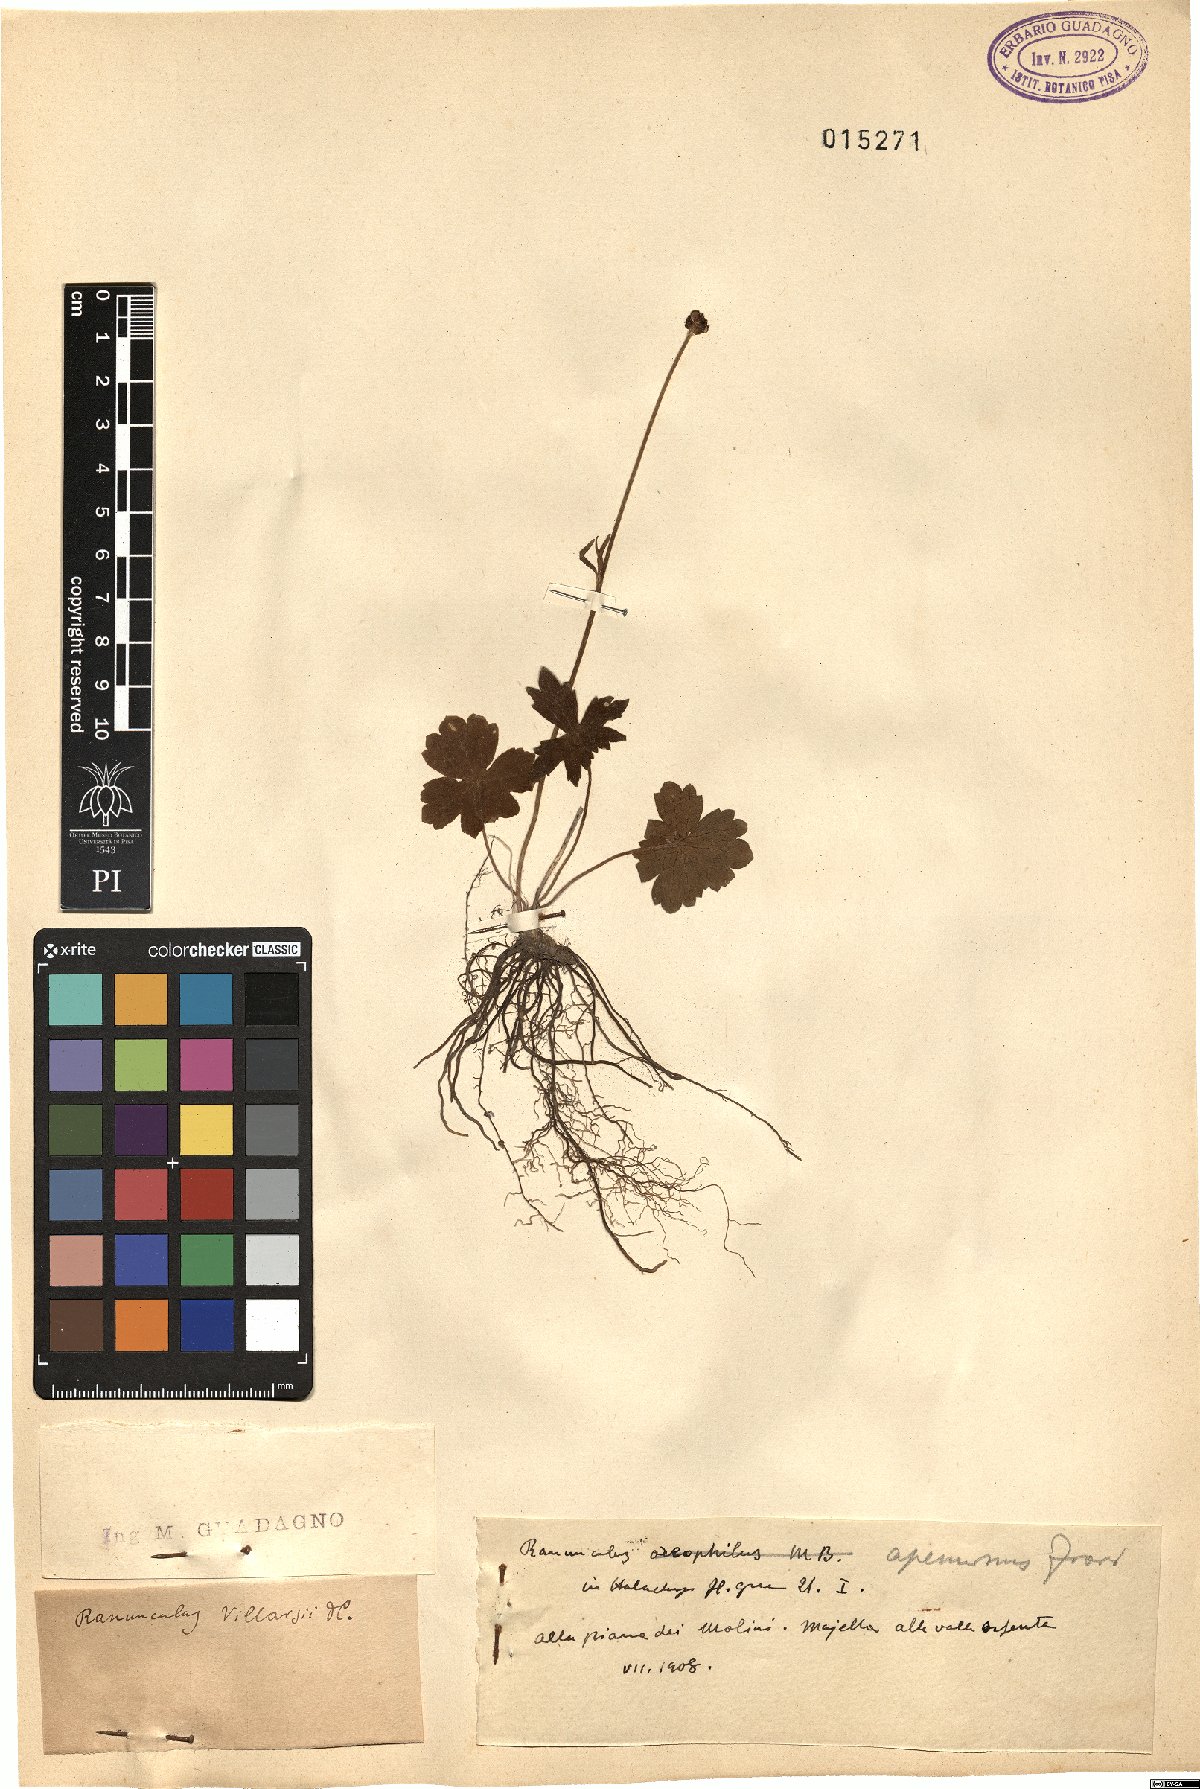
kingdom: Plantae
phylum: Tracheophyta
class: Magnoliopsida
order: Ranunculales
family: Ranunculaceae
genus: Ranunculus
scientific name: Ranunculus apenninus
